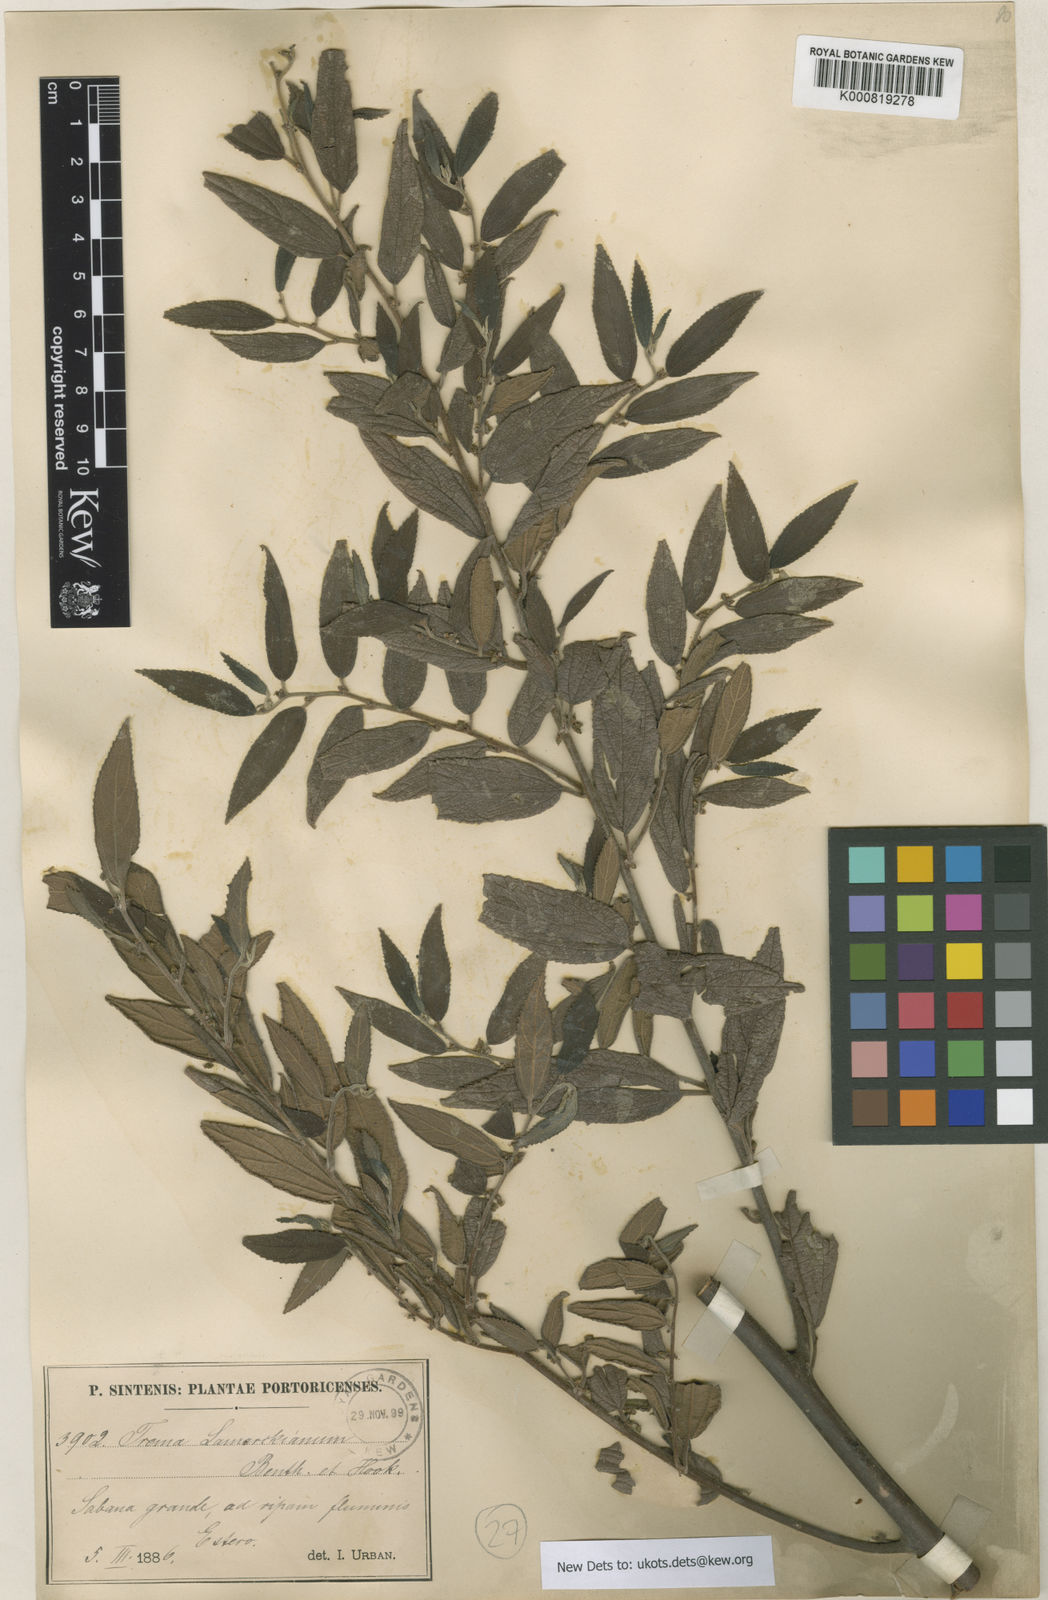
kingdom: Plantae
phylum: Tracheophyta
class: Magnoliopsida
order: Rosales
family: Cannabaceae
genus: Trema
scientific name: Trema lamarckianum
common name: Lamarck's trema
